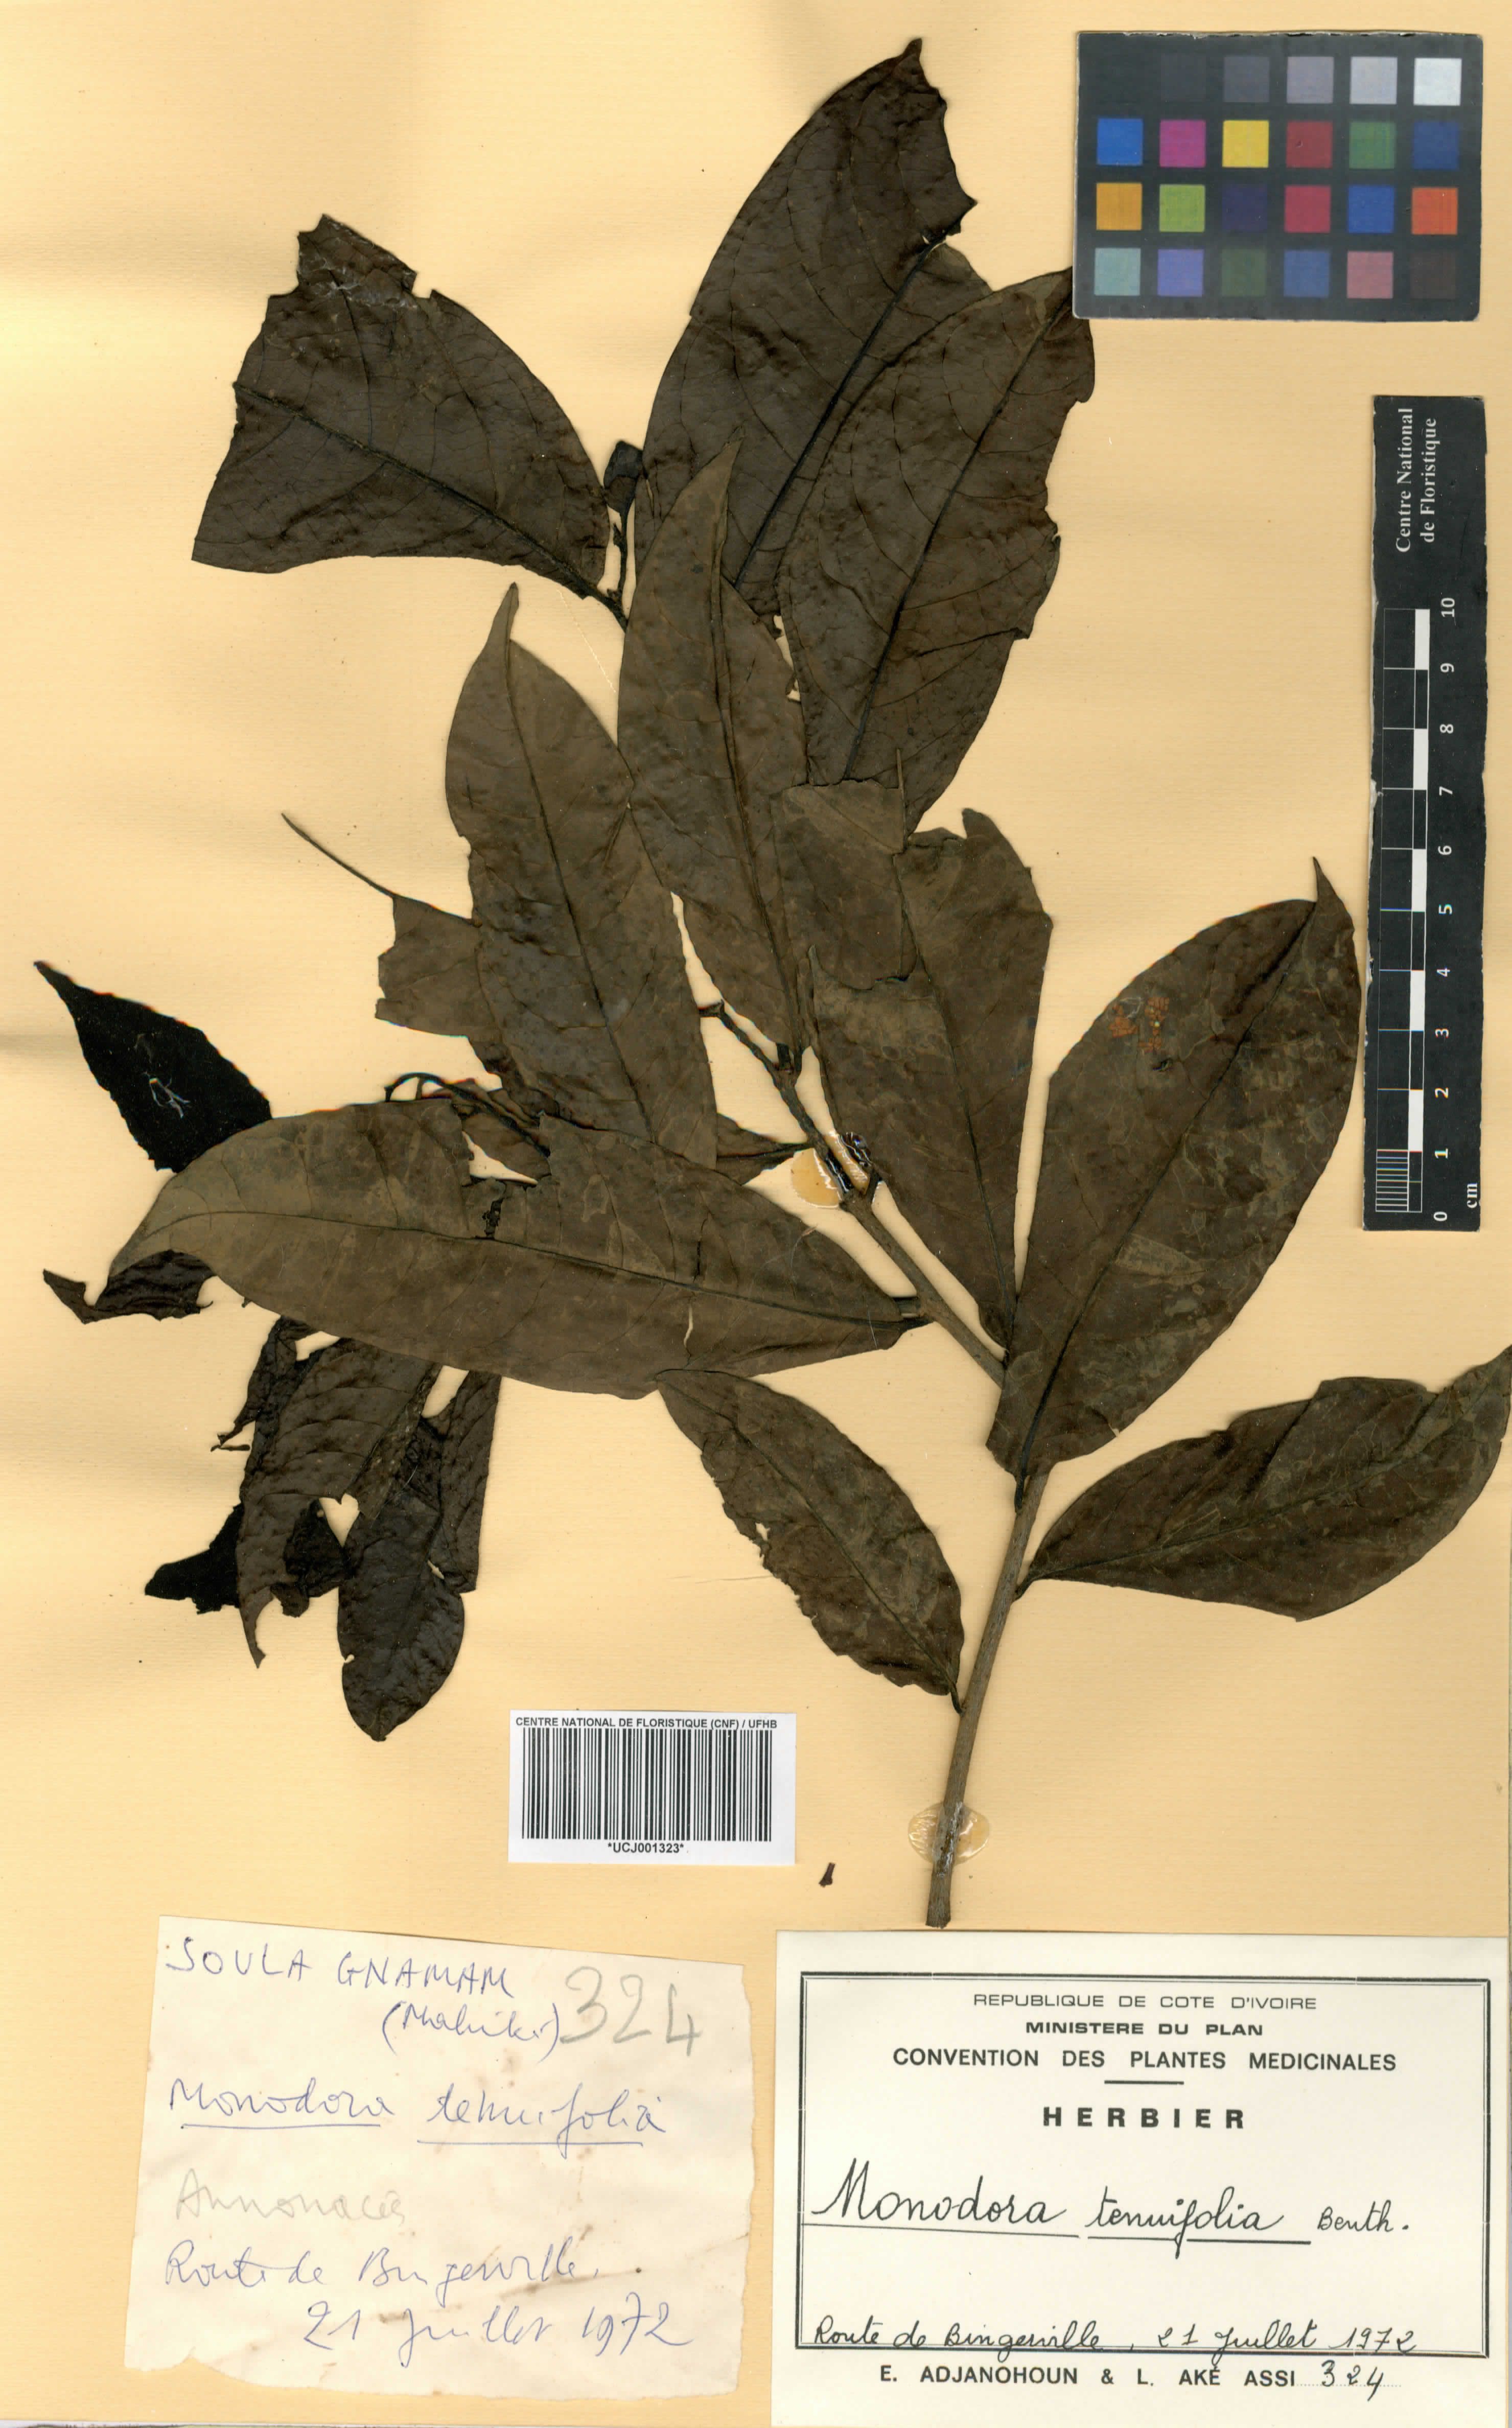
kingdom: Plantae
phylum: Tracheophyta
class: Magnoliopsida
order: Magnoliales
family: Annonaceae
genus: Monodora
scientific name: Monodora tenuifolia
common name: Orchidtree
